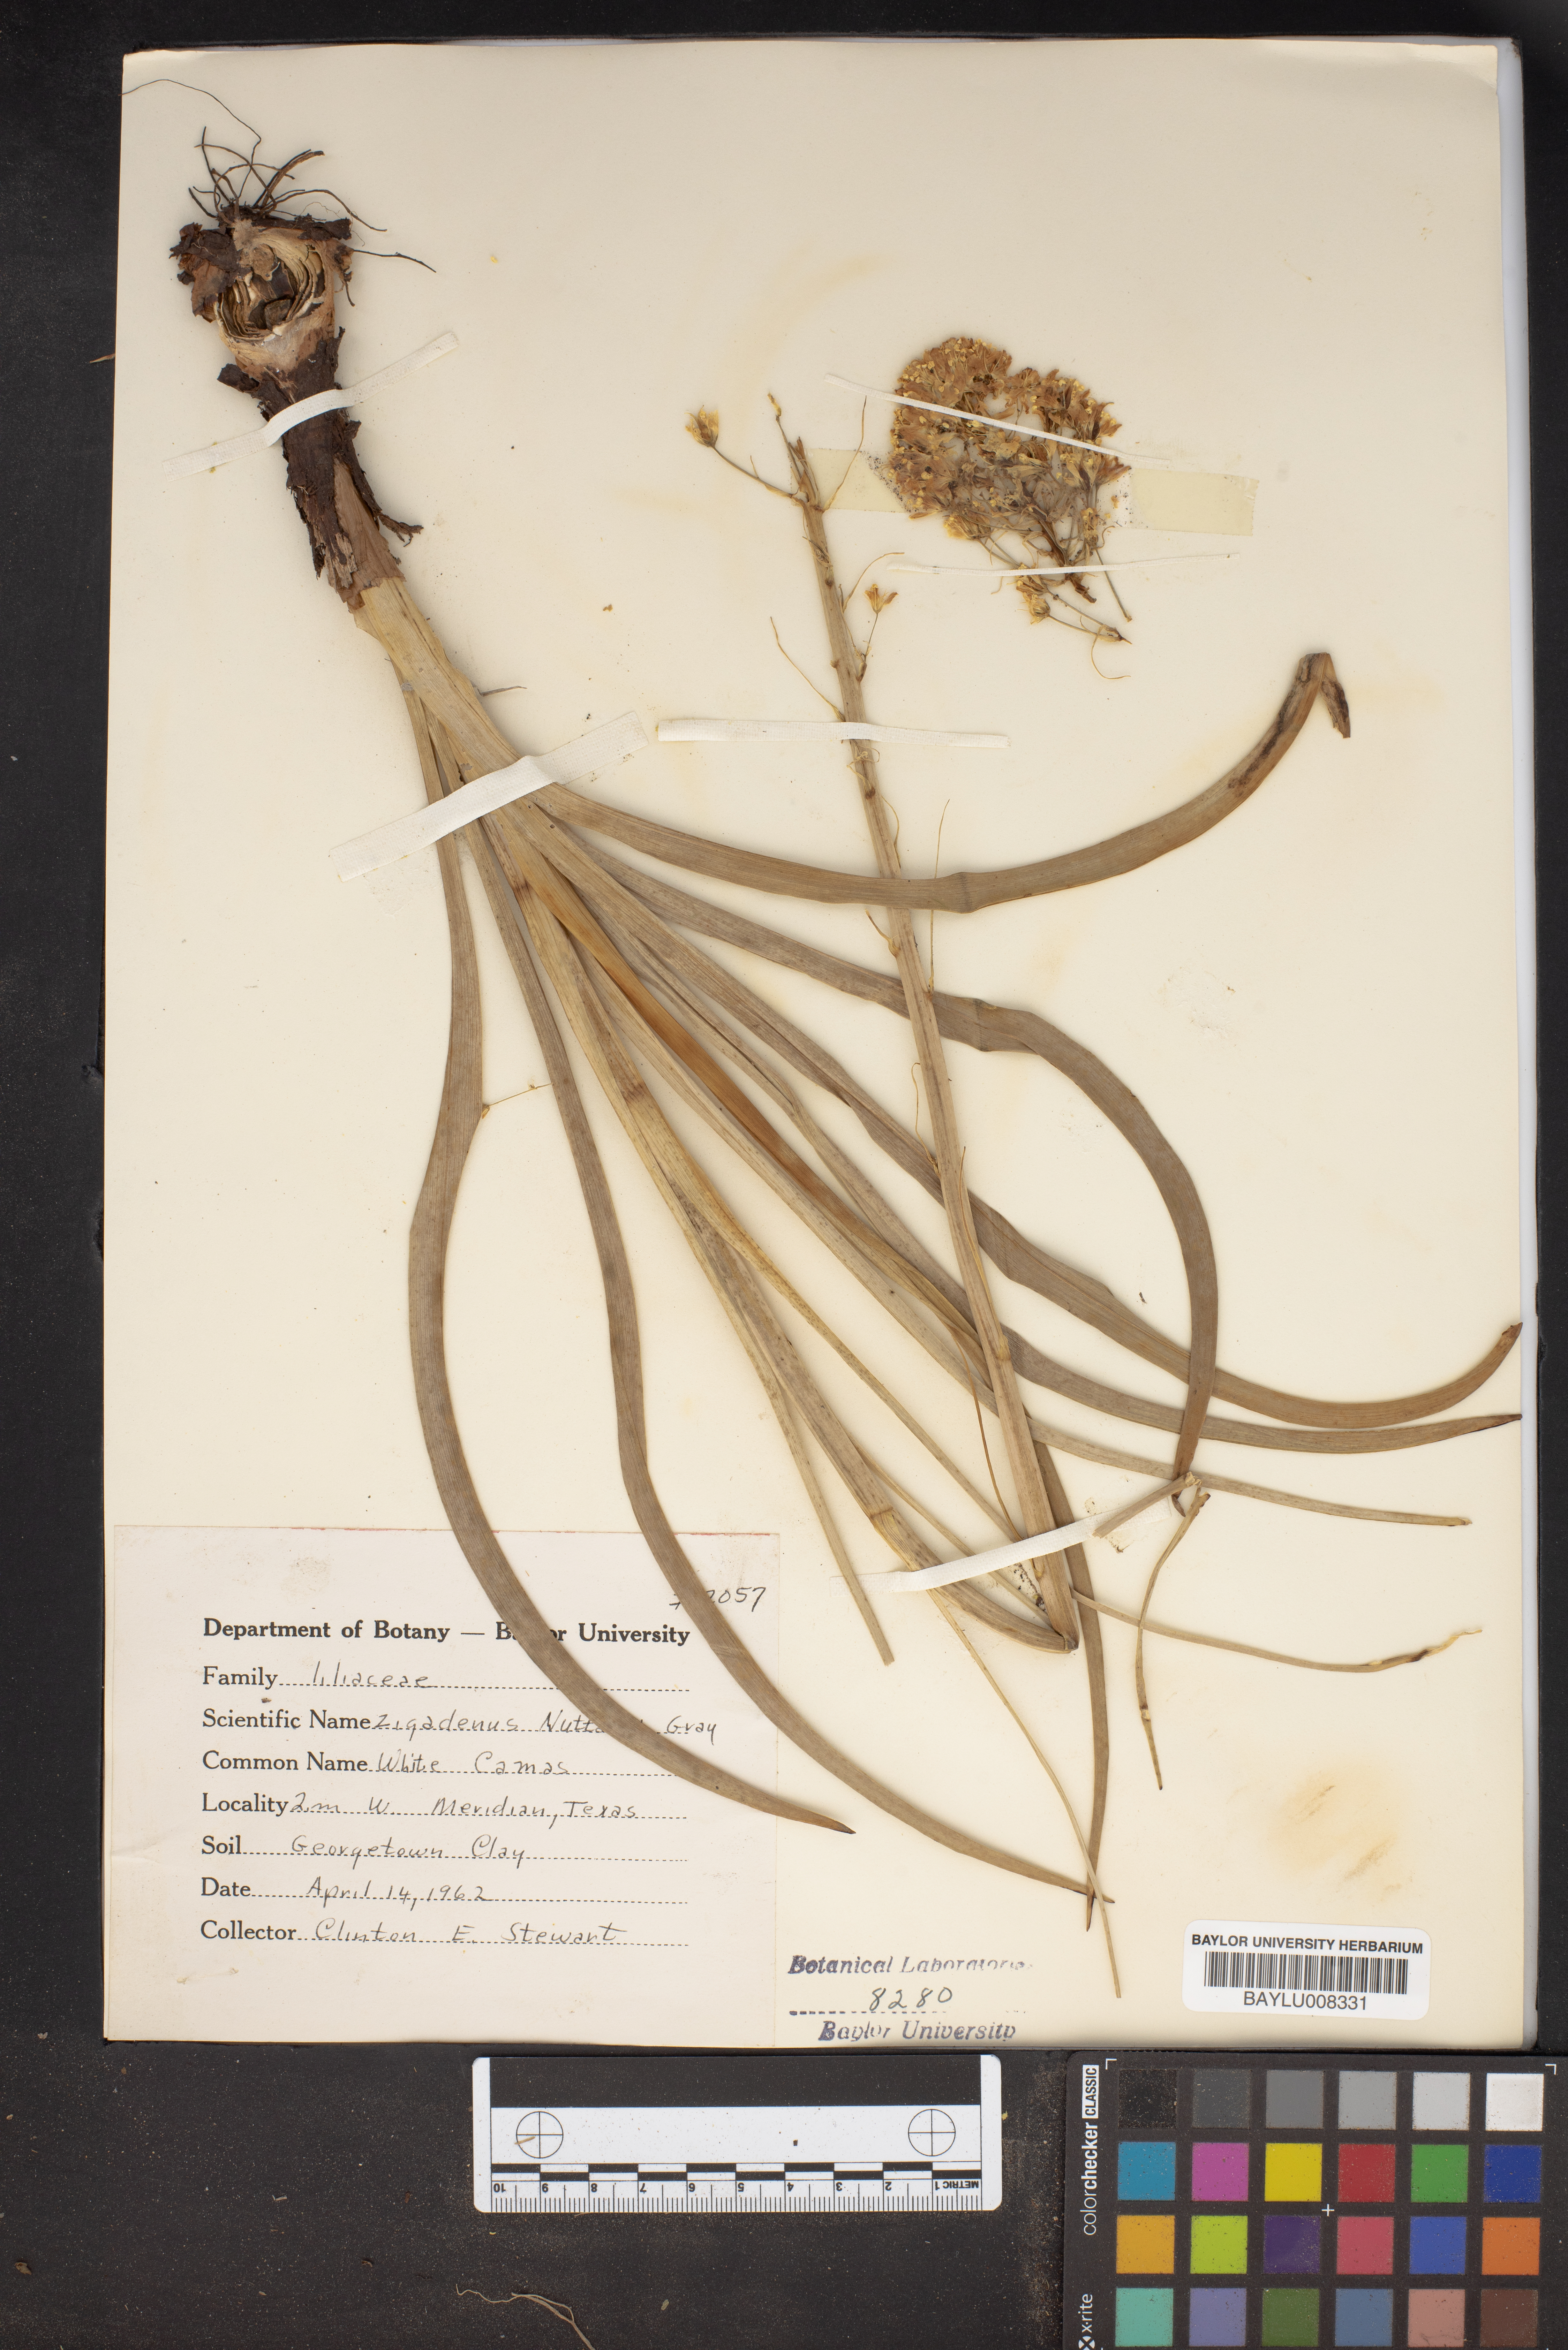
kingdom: Plantae
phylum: Tracheophyta
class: Liliopsida
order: Liliales
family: Melanthiaceae
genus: Toxicoscordion
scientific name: Toxicoscordion nuttallii
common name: Poison sego
